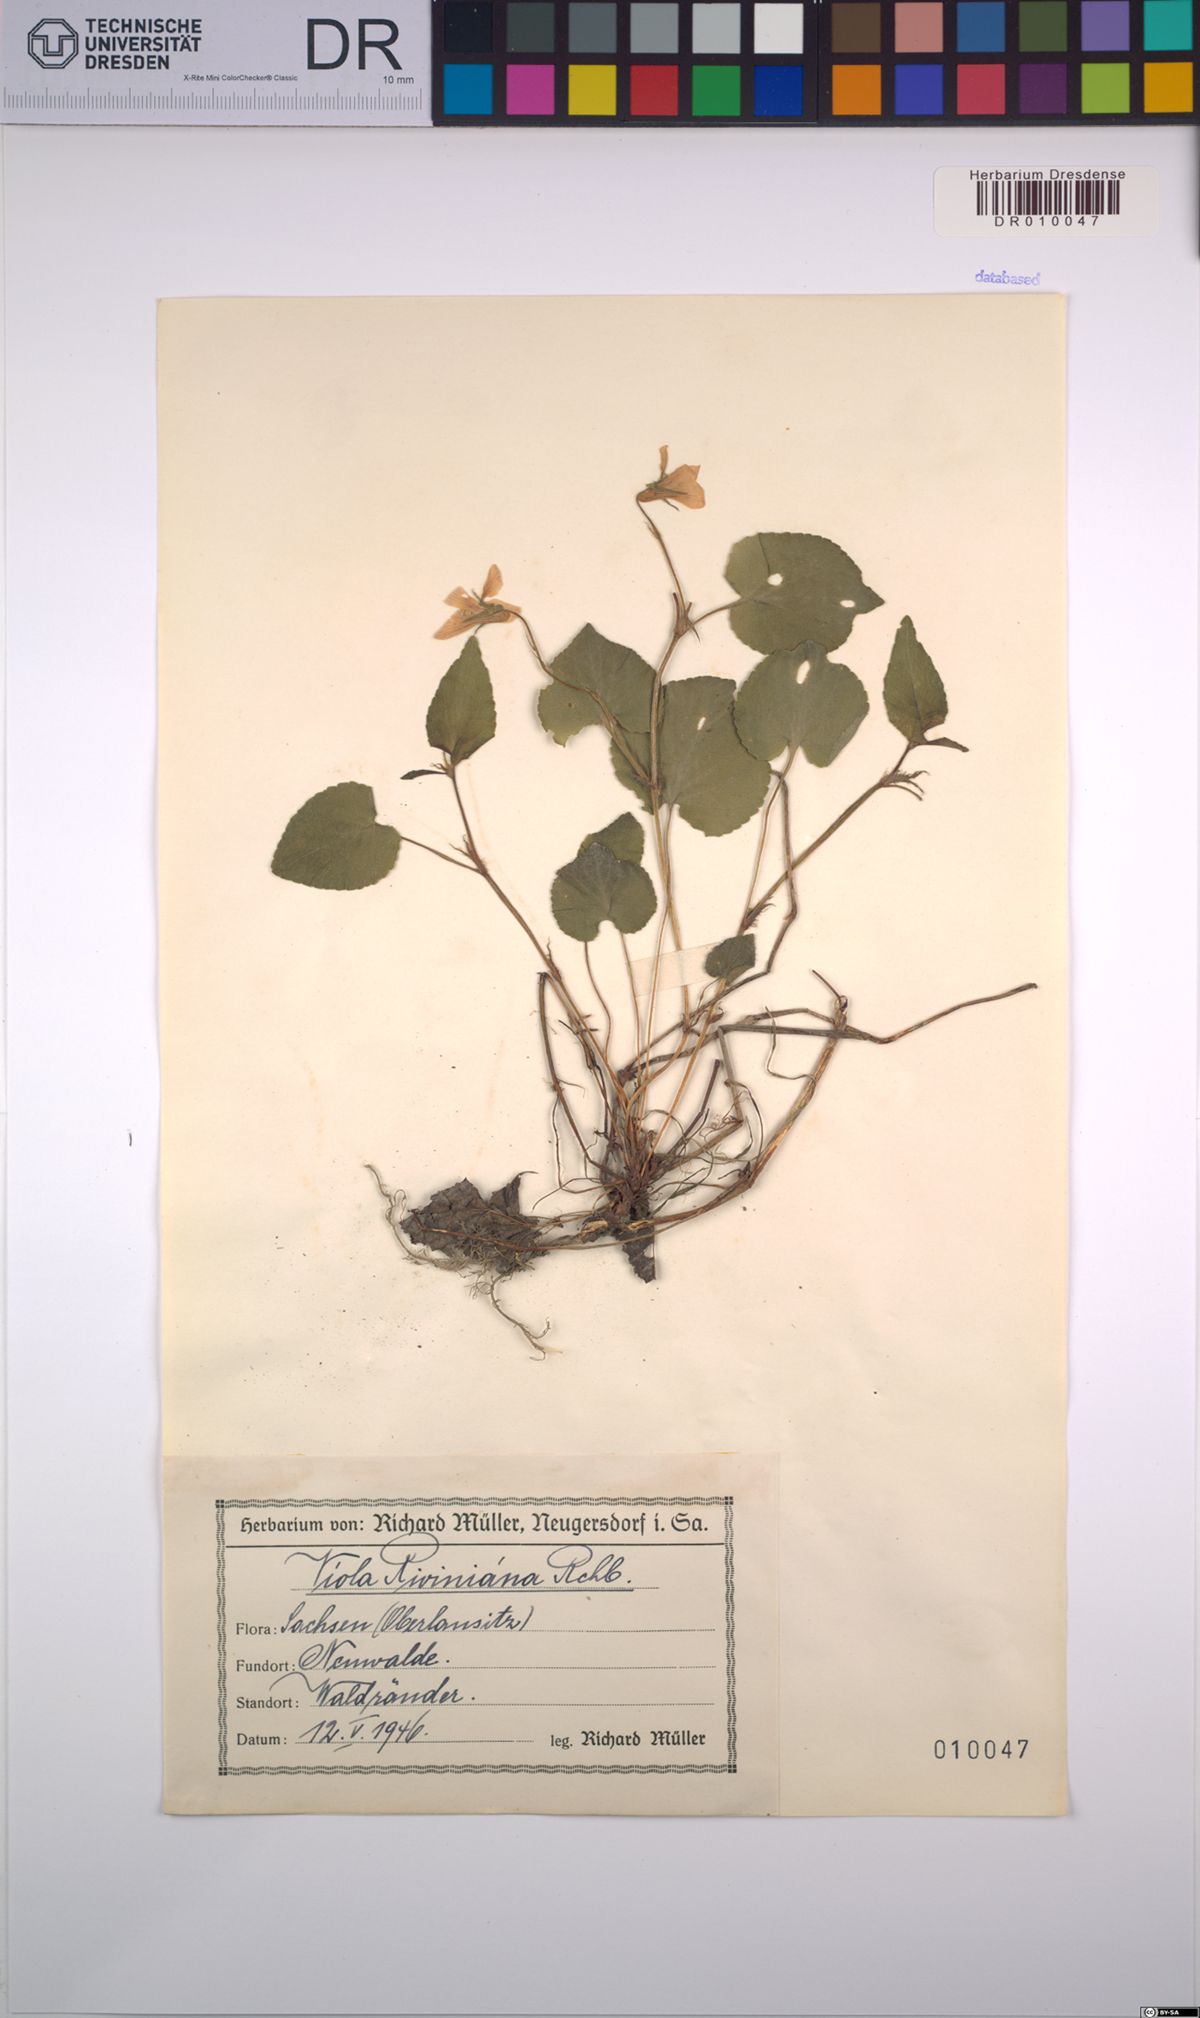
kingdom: Plantae
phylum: Tracheophyta
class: Magnoliopsida
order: Malpighiales
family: Violaceae
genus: Viola
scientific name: Viola riviniana
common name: Common dog-violet
